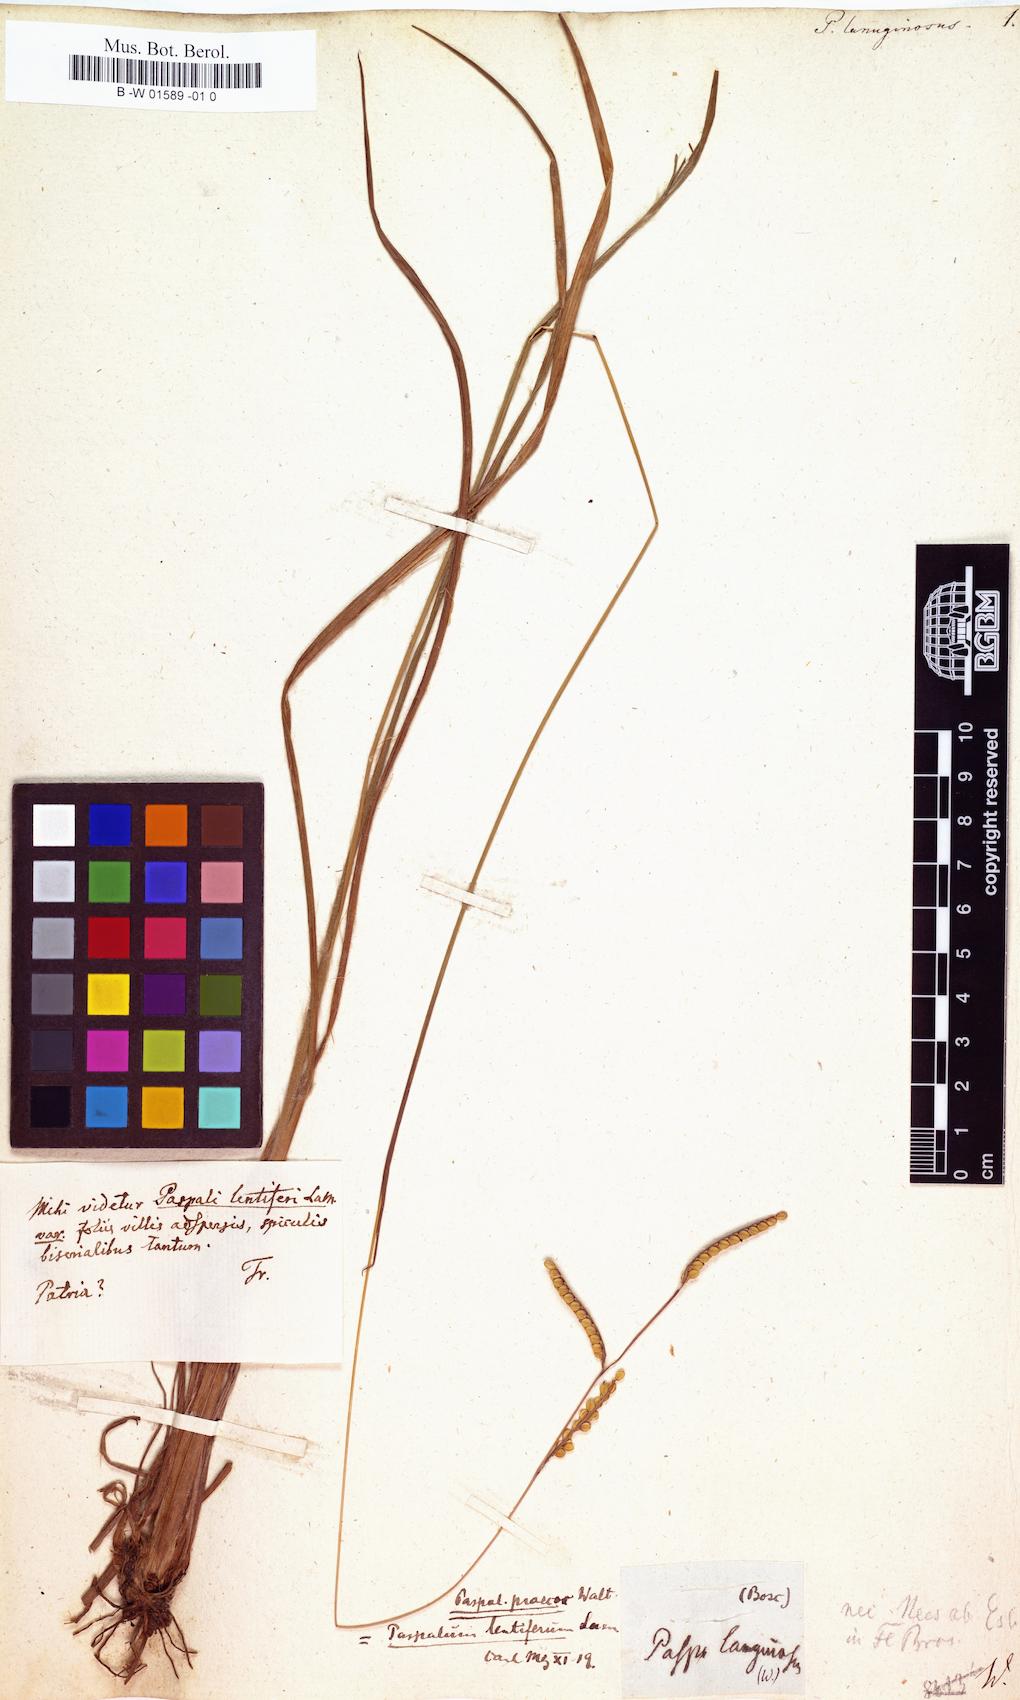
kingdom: Plantae
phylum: Tracheophyta
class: Liliopsida
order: Poales
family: Poaceae
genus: Digitaria
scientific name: Digitaria lanuginosa
